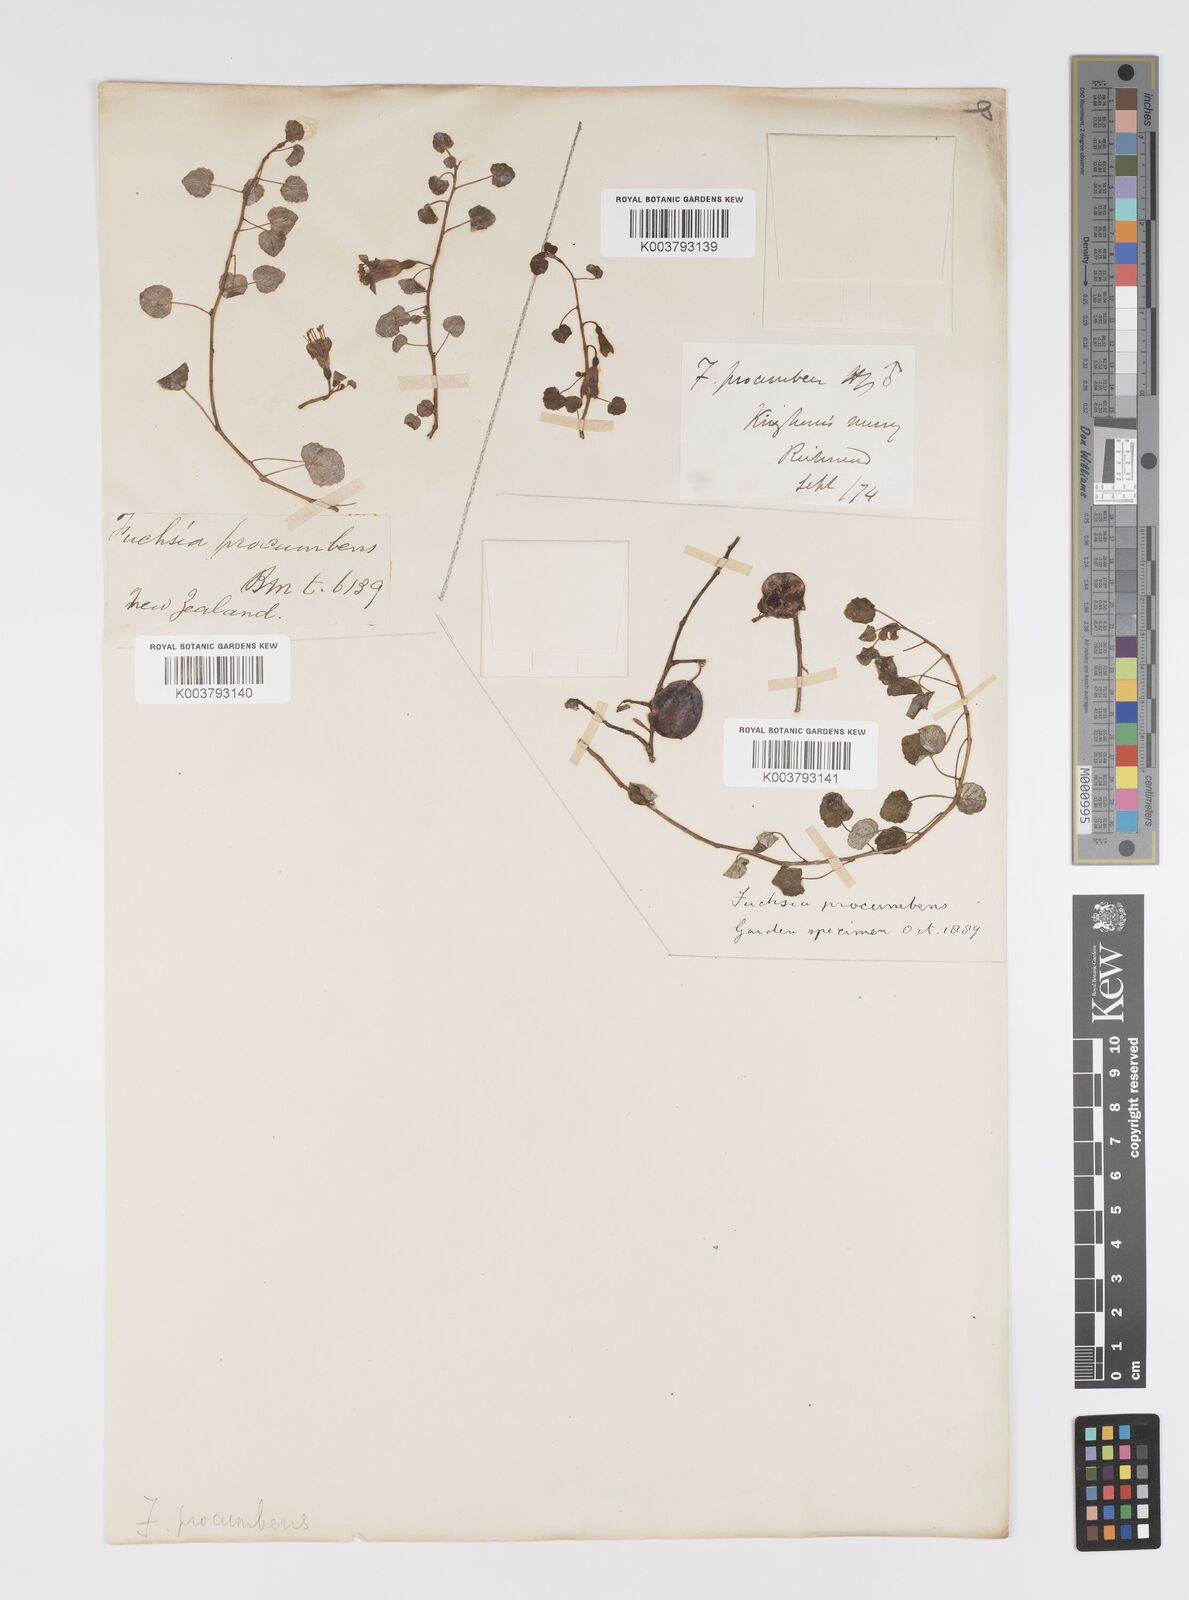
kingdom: Plantae
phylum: Tracheophyta
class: Magnoliopsida
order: Myrtales
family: Onagraceae
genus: Fuchsia
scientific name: Fuchsia procumbens
